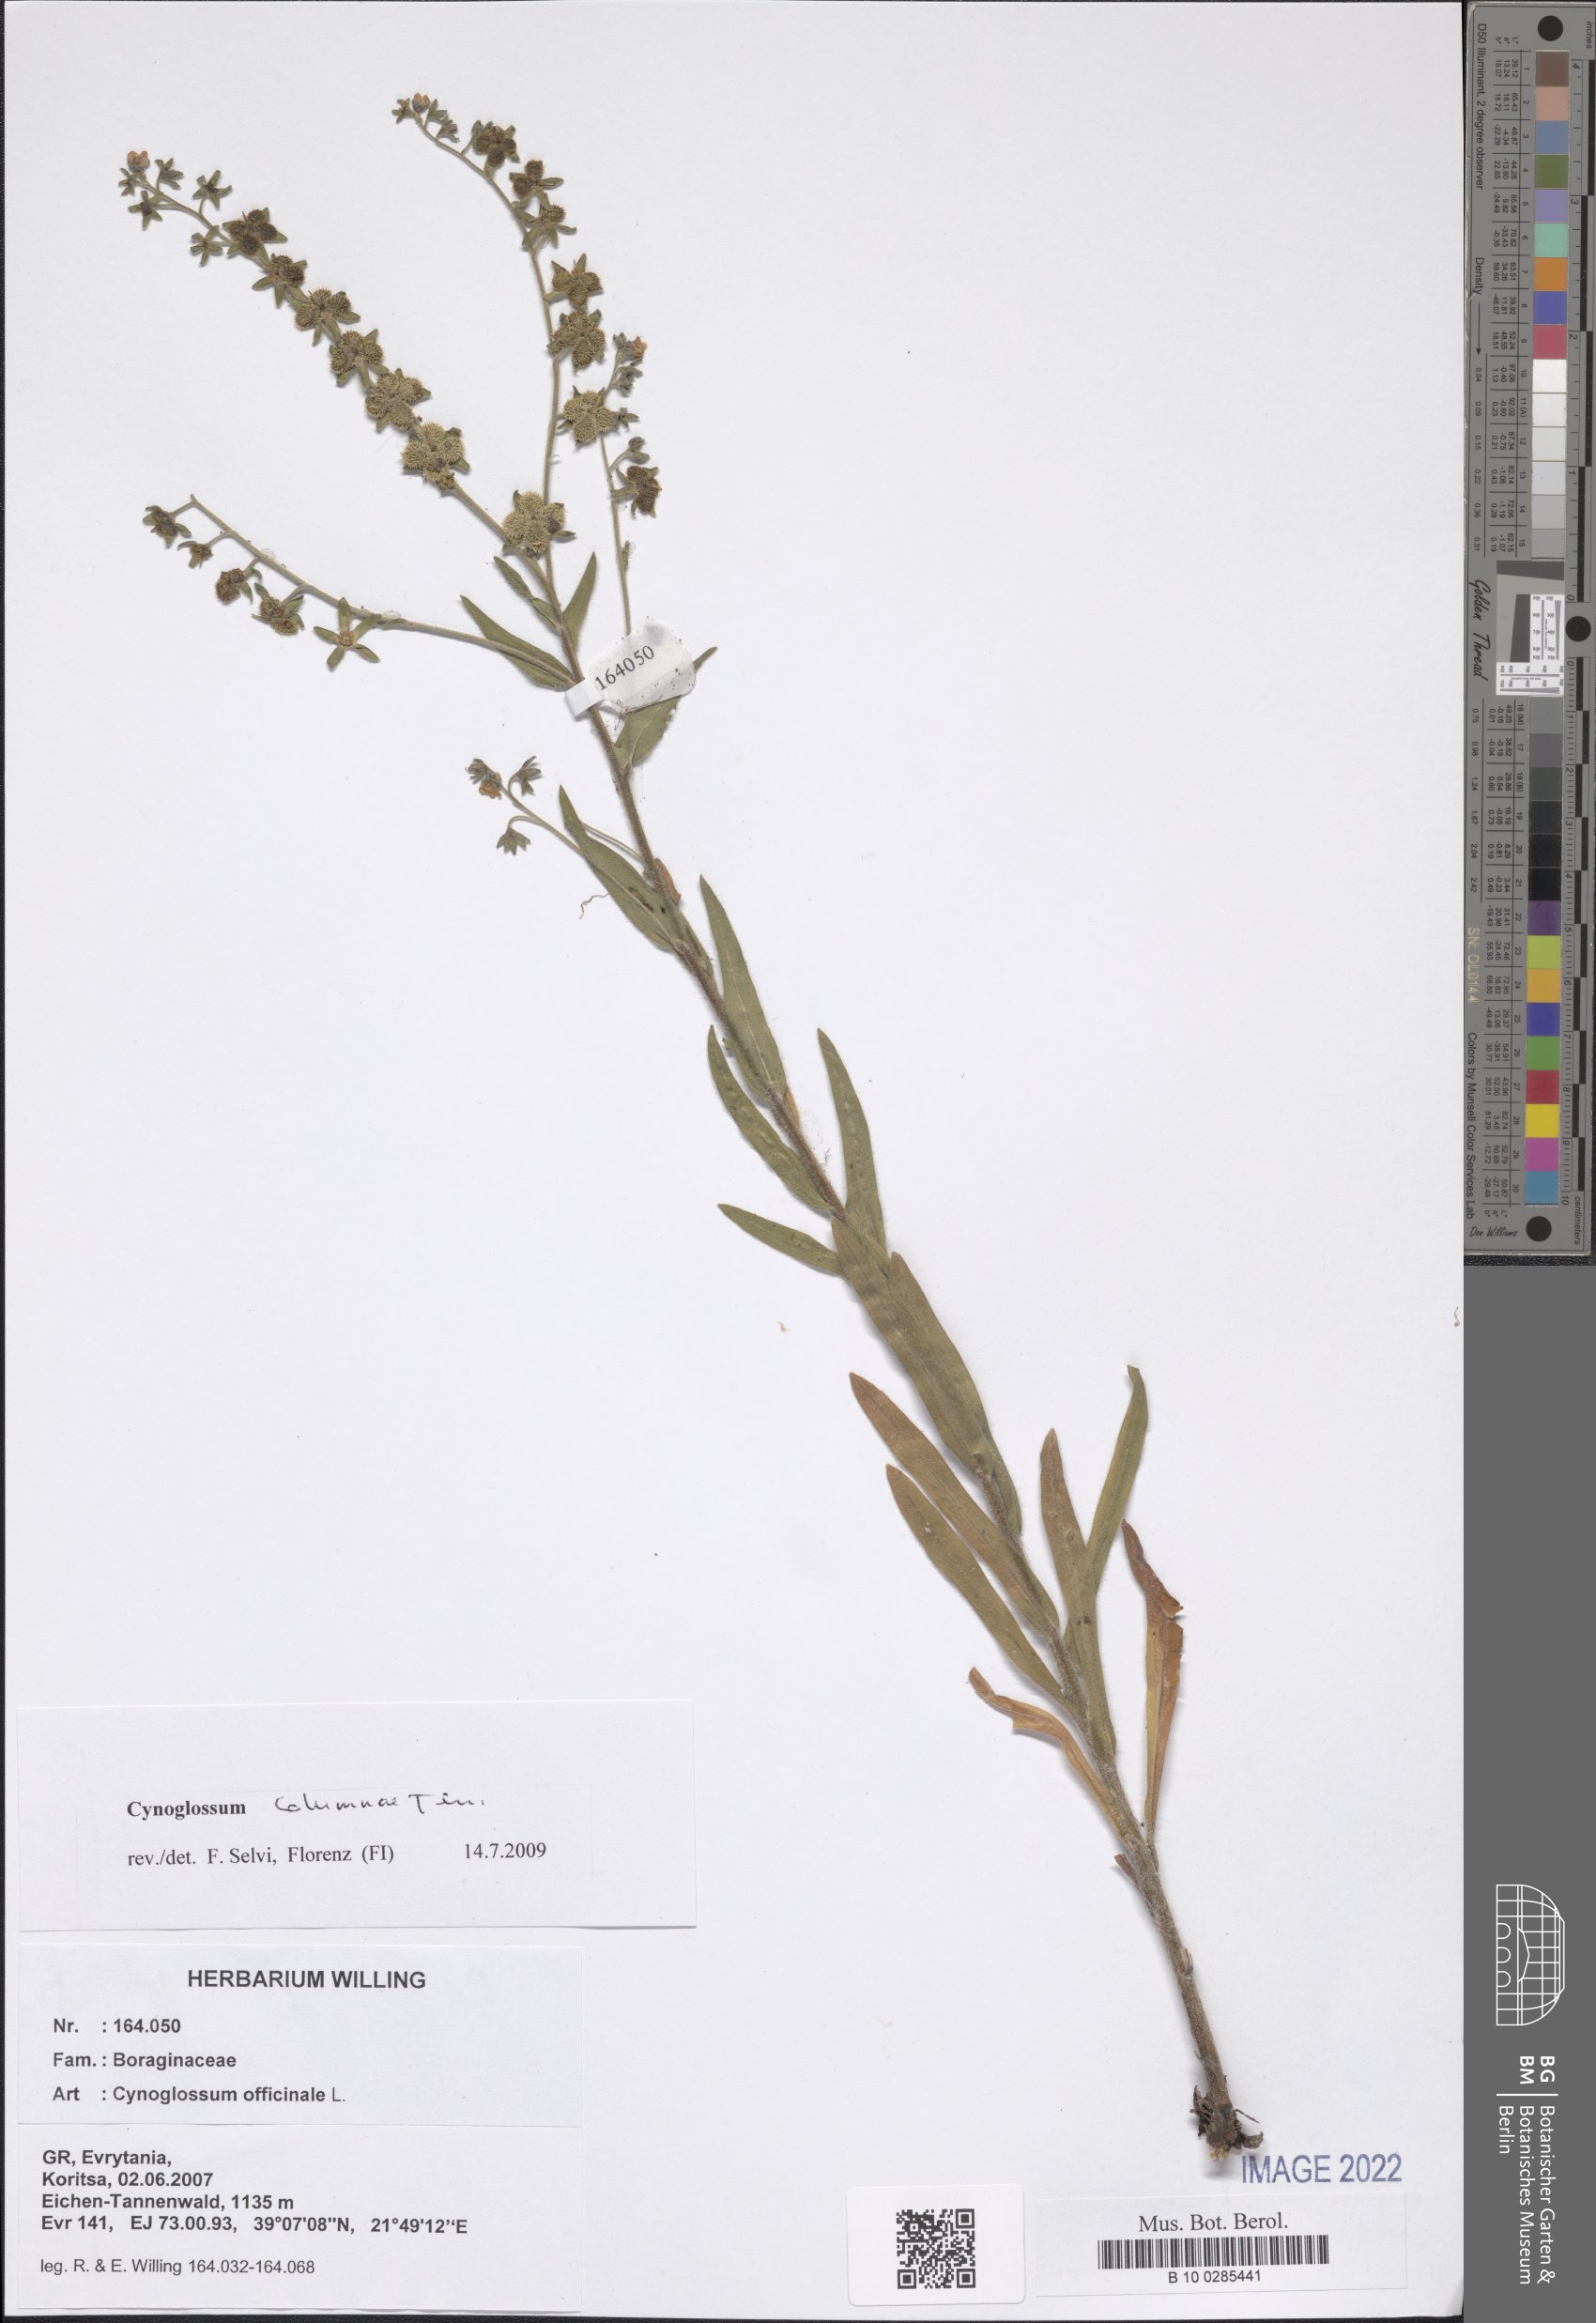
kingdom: Plantae
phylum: Tracheophyta
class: Magnoliopsida
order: Boraginales
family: Boraginaceae
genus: Rindera
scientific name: Rindera columnae
